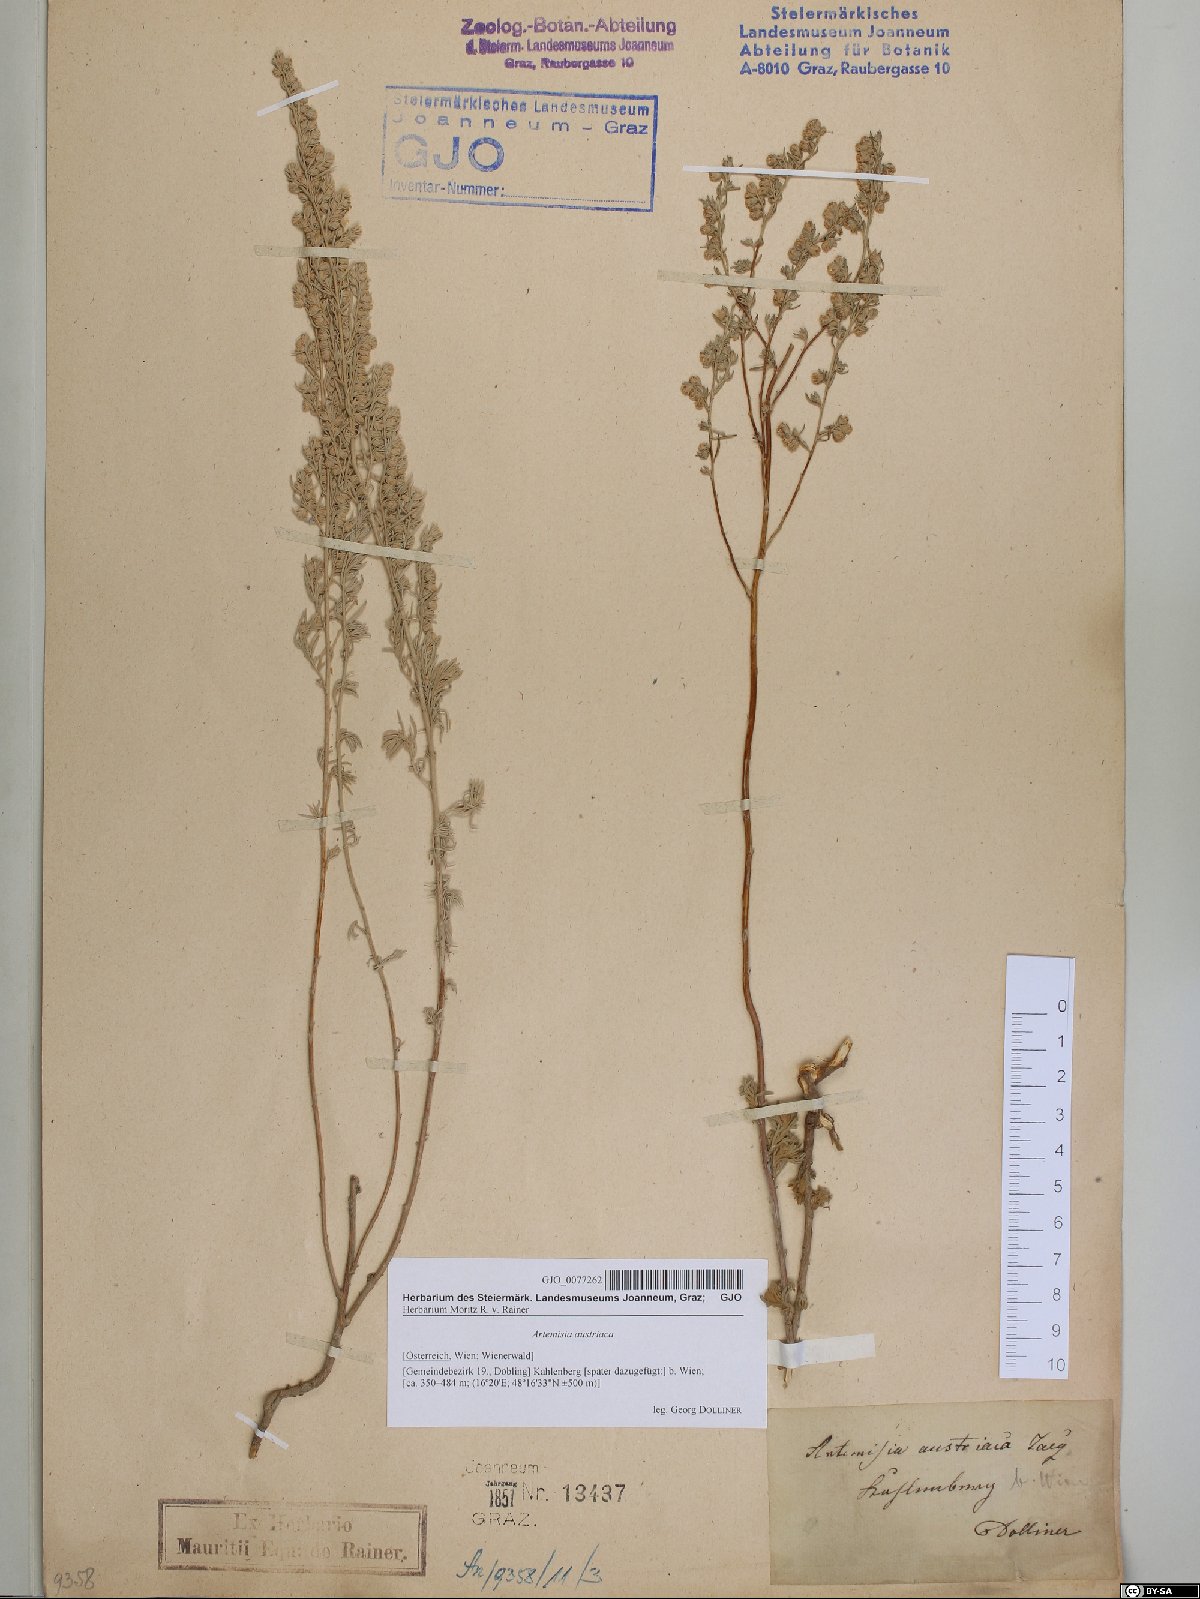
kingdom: Plantae
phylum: Tracheophyta
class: Magnoliopsida
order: Asterales
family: Asteraceae
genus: Artemisia
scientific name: Artemisia austriaca
